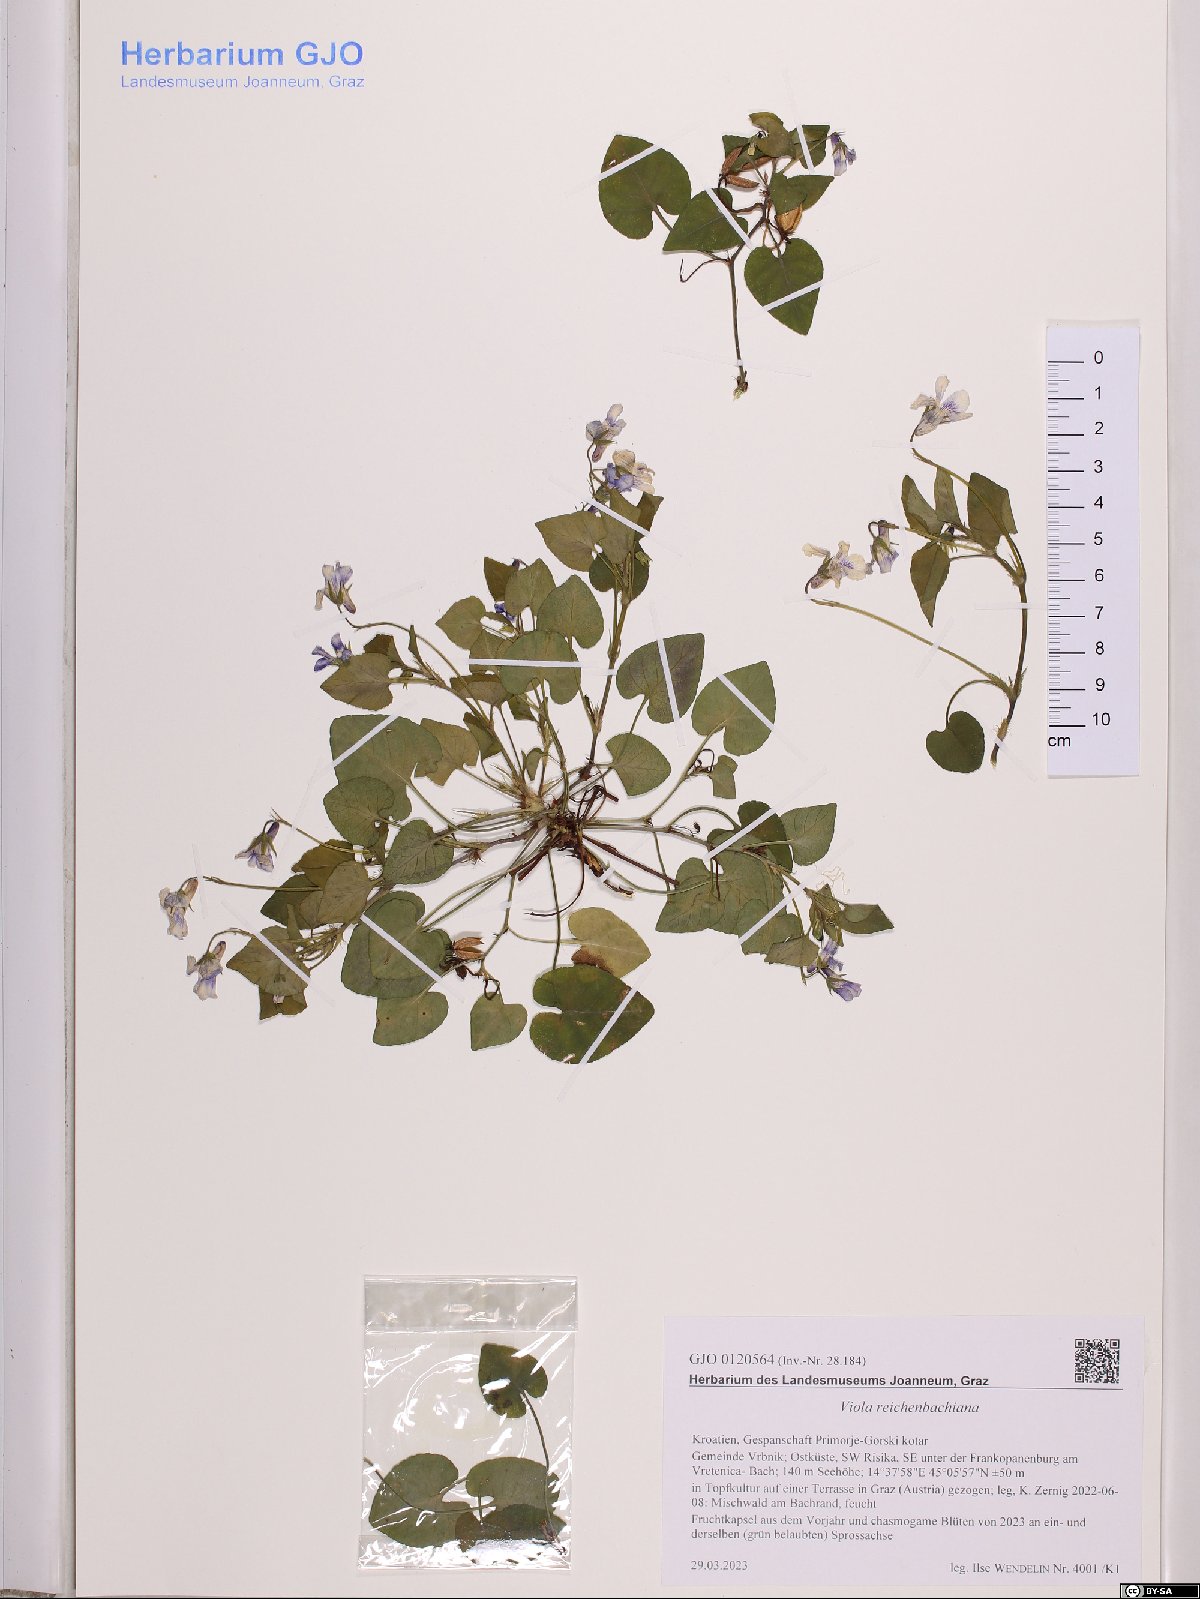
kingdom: Plantae
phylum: Tracheophyta
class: Magnoliopsida
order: Malpighiales
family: Violaceae
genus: Viola
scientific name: Viola reichenbachiana
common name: Early dog-violet
